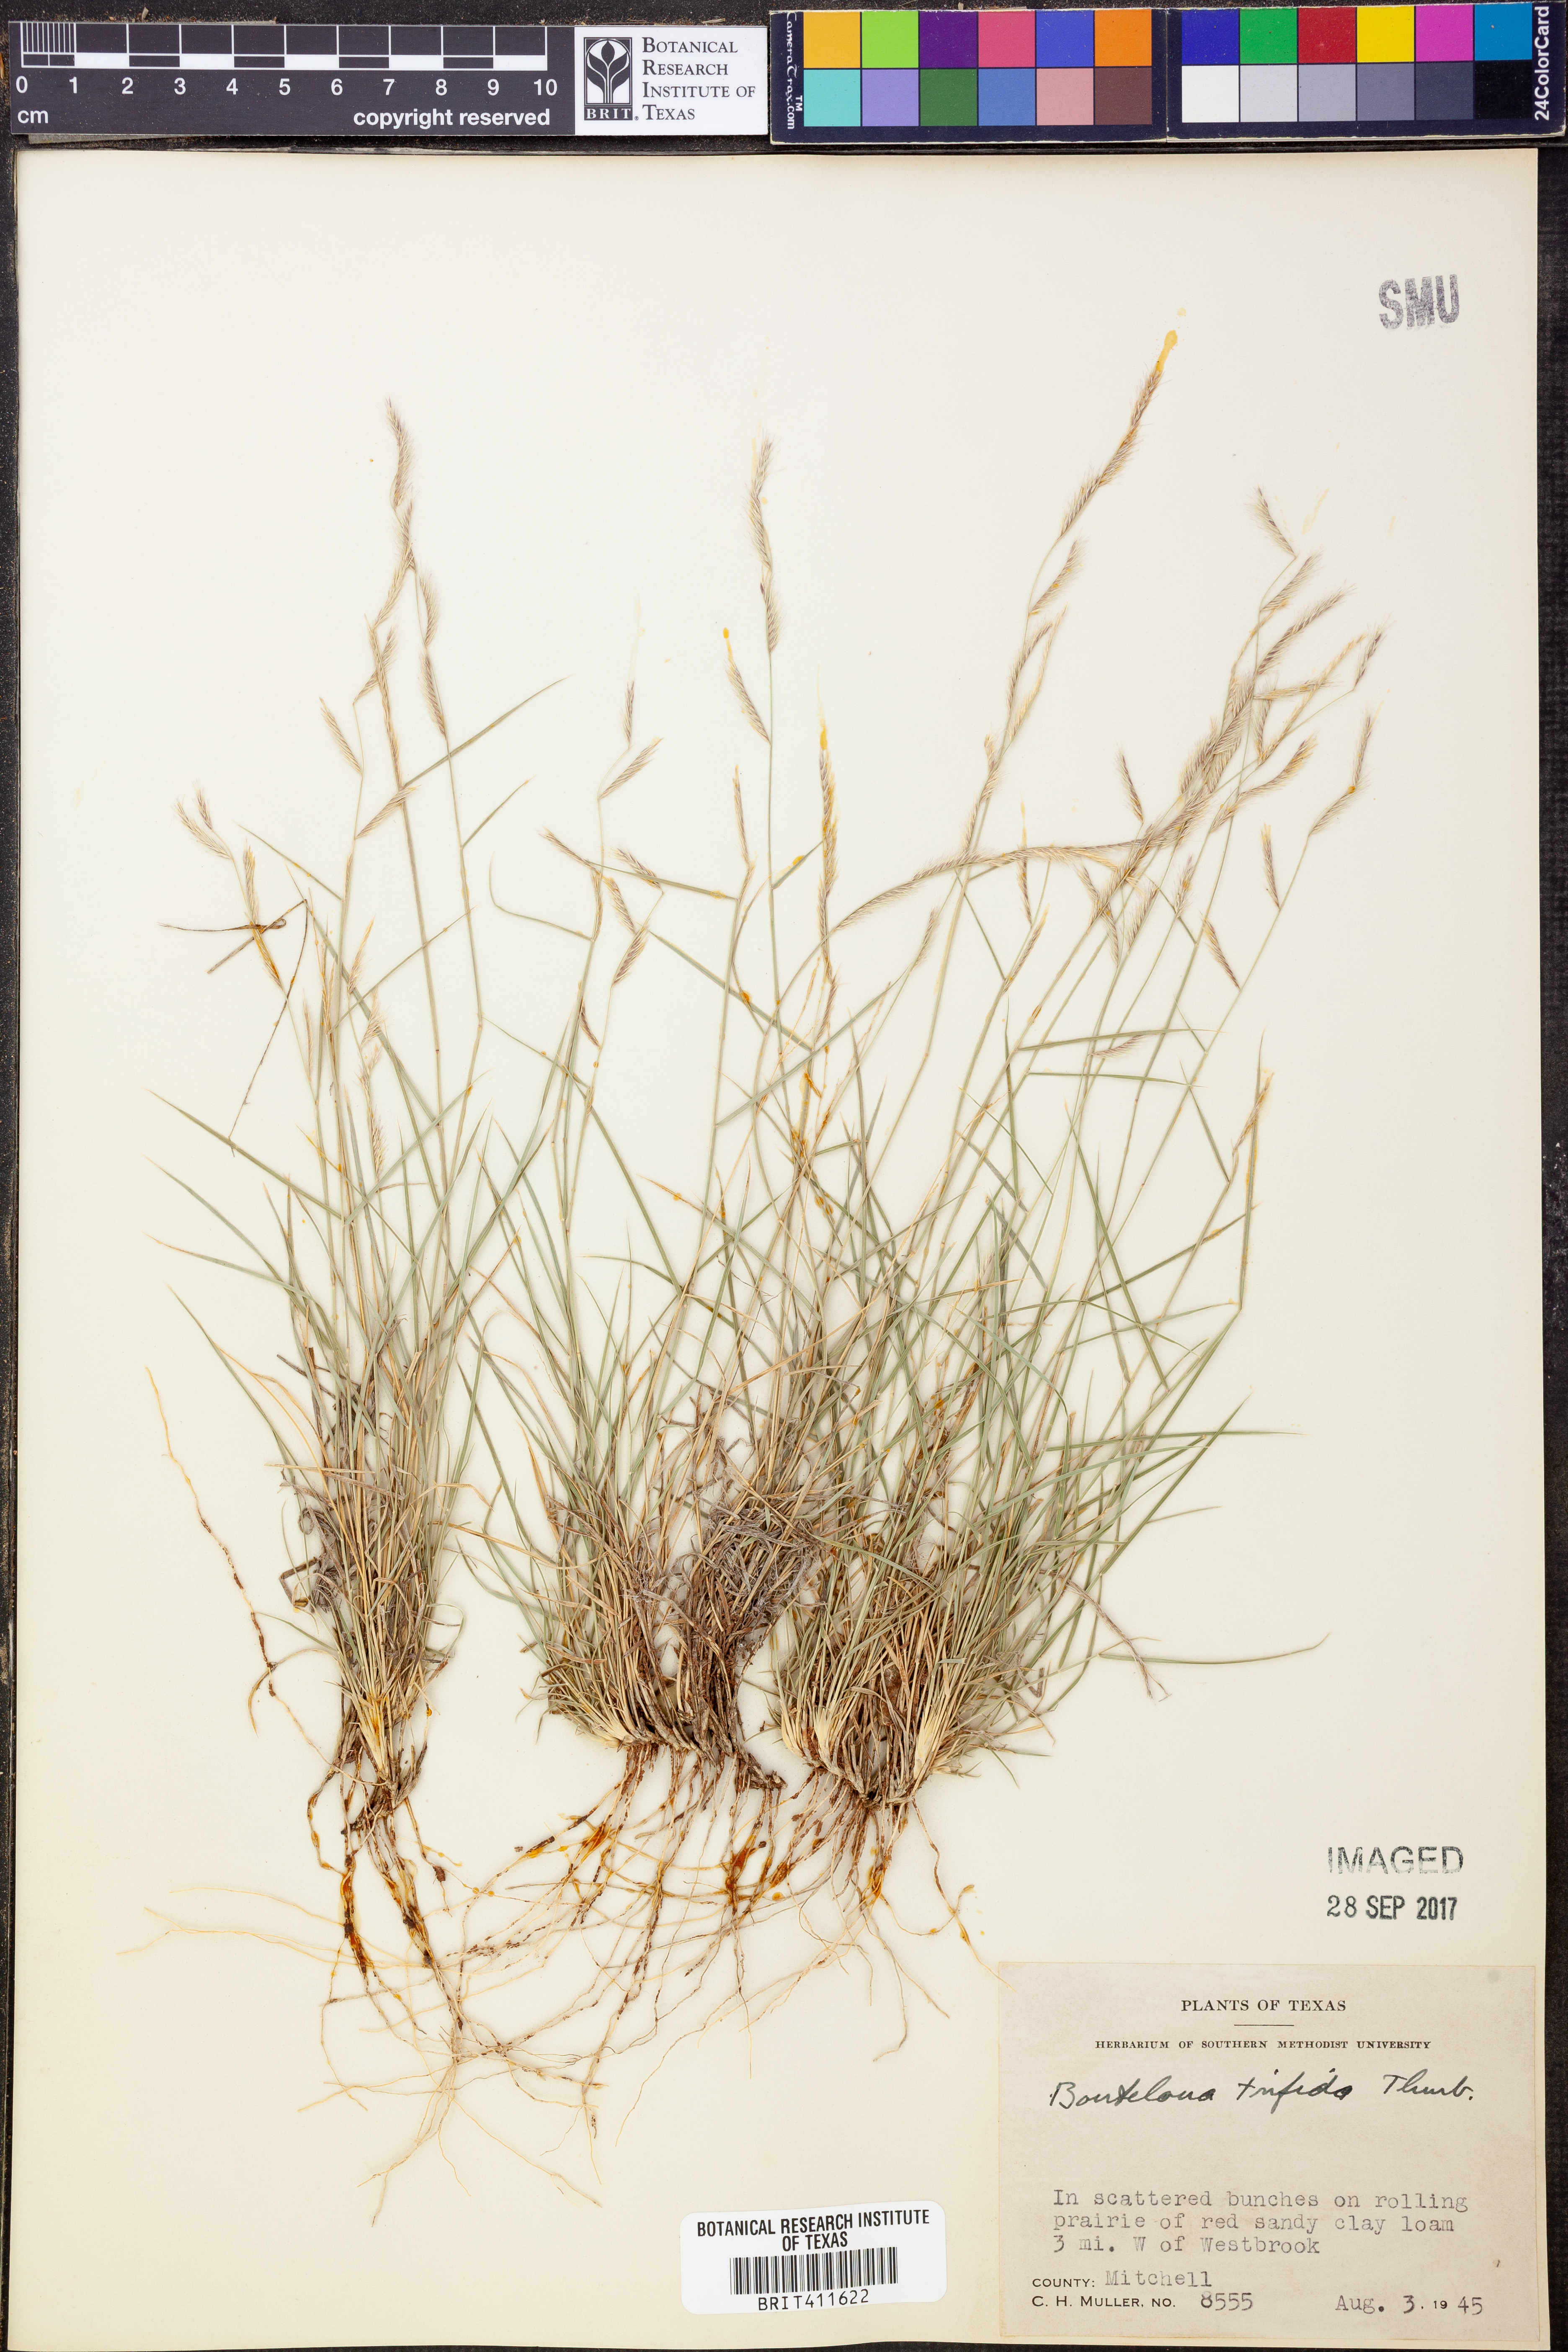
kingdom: Plantae
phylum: Tracheophyta
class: Liliopsida
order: Poales
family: Poaceae
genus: Bouteloua
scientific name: Bouteloua trifida
